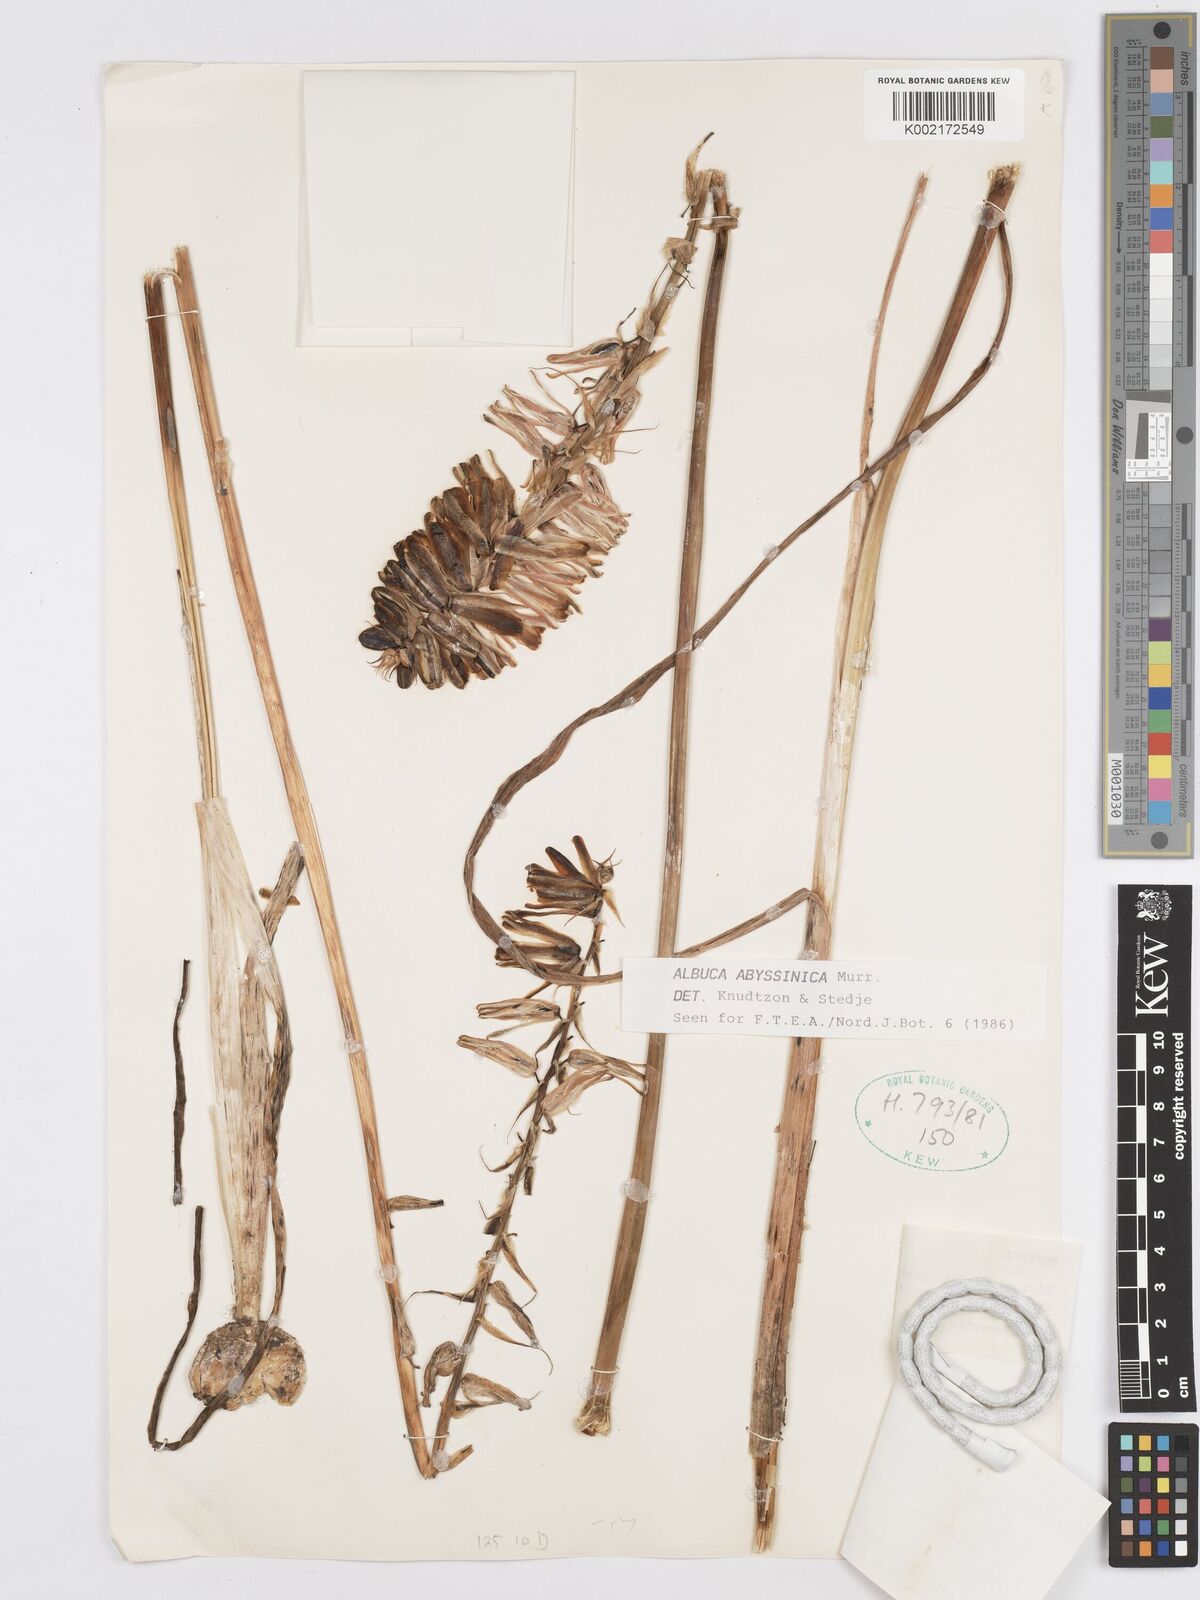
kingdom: Plantae
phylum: Tracheophyta
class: Liliopsida
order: Asparagales
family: Asparagaceae
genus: Albuca
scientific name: Albuca abyssinica
